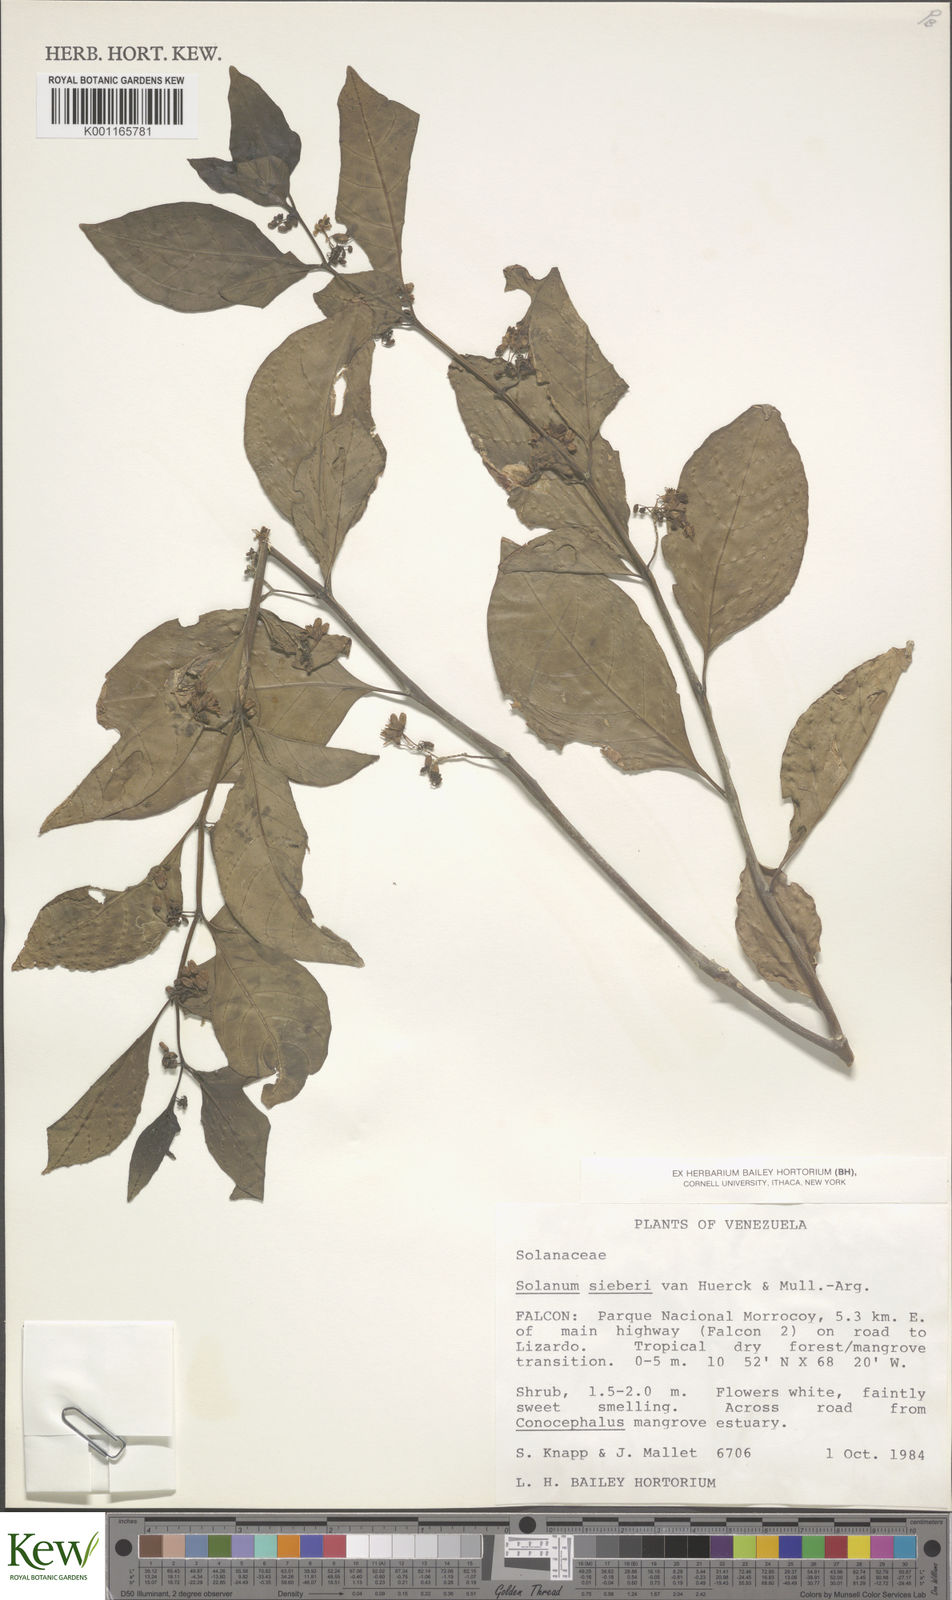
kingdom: Plantae
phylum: Tracheophyta
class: Magnoliopsida
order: Solanales
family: Solanaceae
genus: Solanum
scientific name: Solanum sieberi
